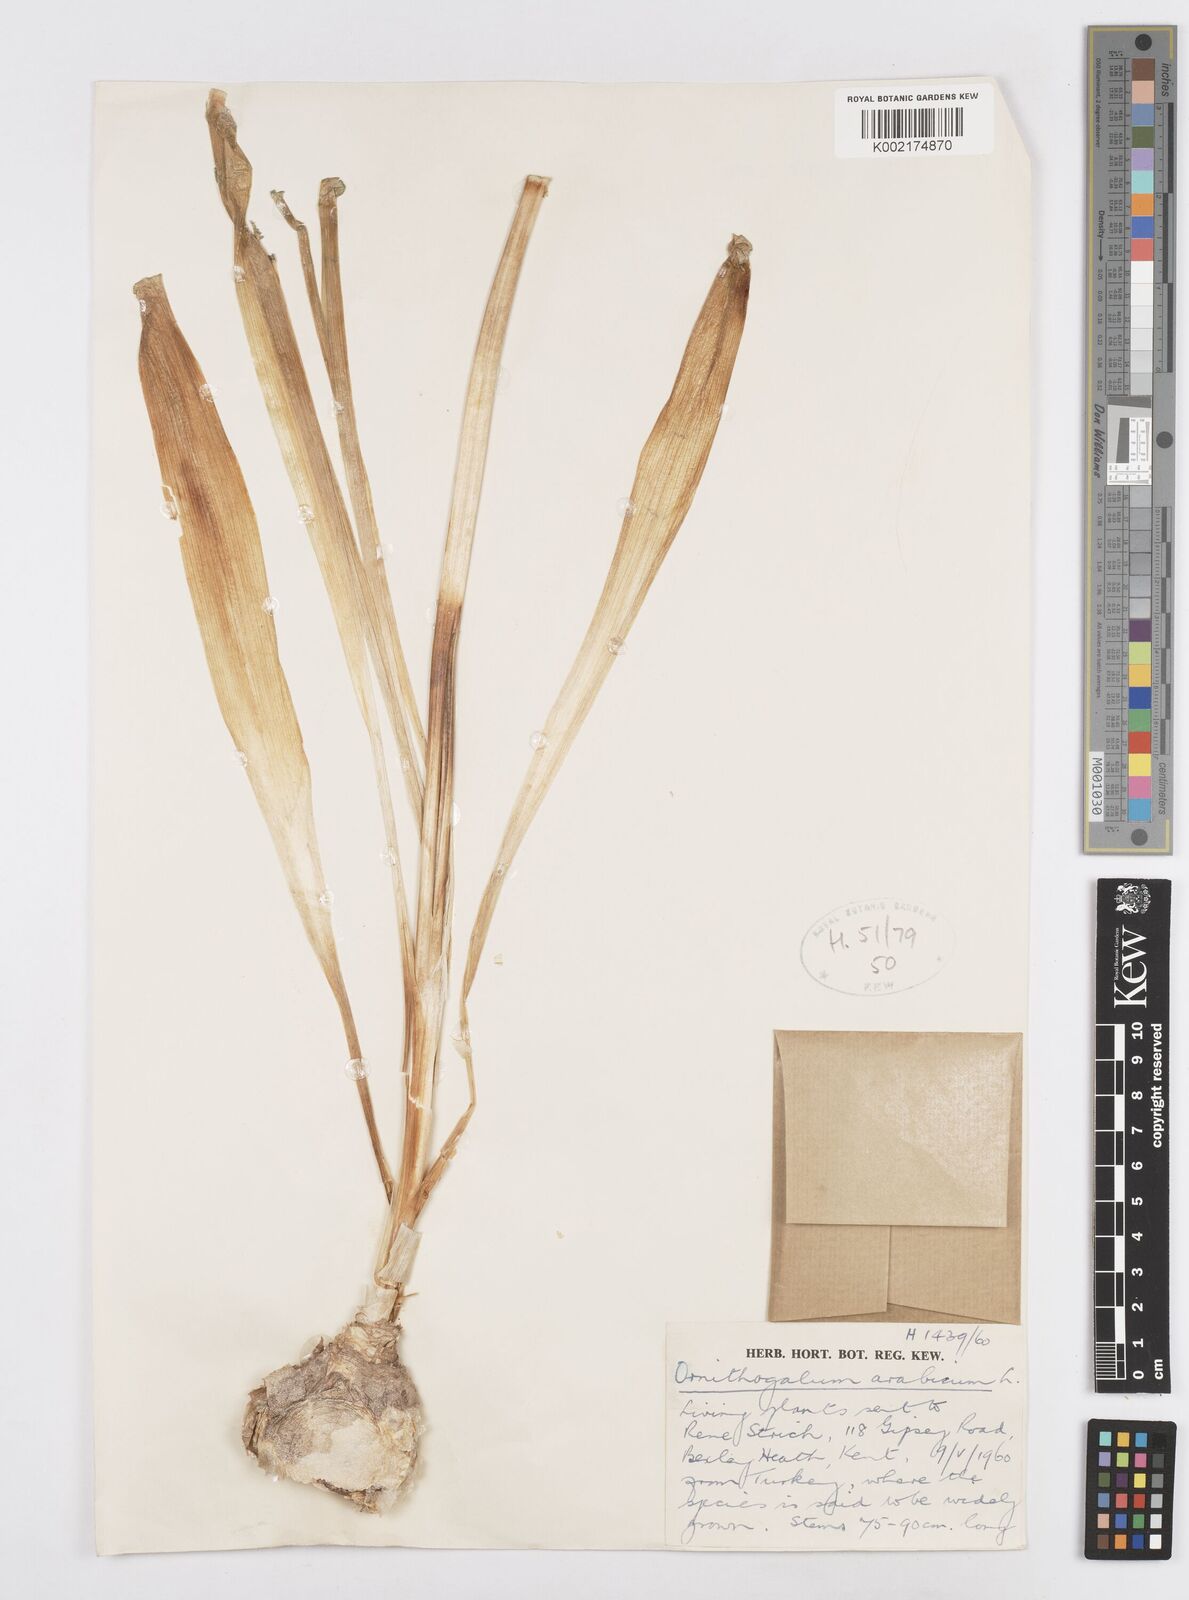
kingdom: Plantae
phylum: Tracheophyta
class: Liliopsida
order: Asparagales
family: Asparagaceae
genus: Ornithogalum
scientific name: Ornithogalum arabicum
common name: Arabian starflower
